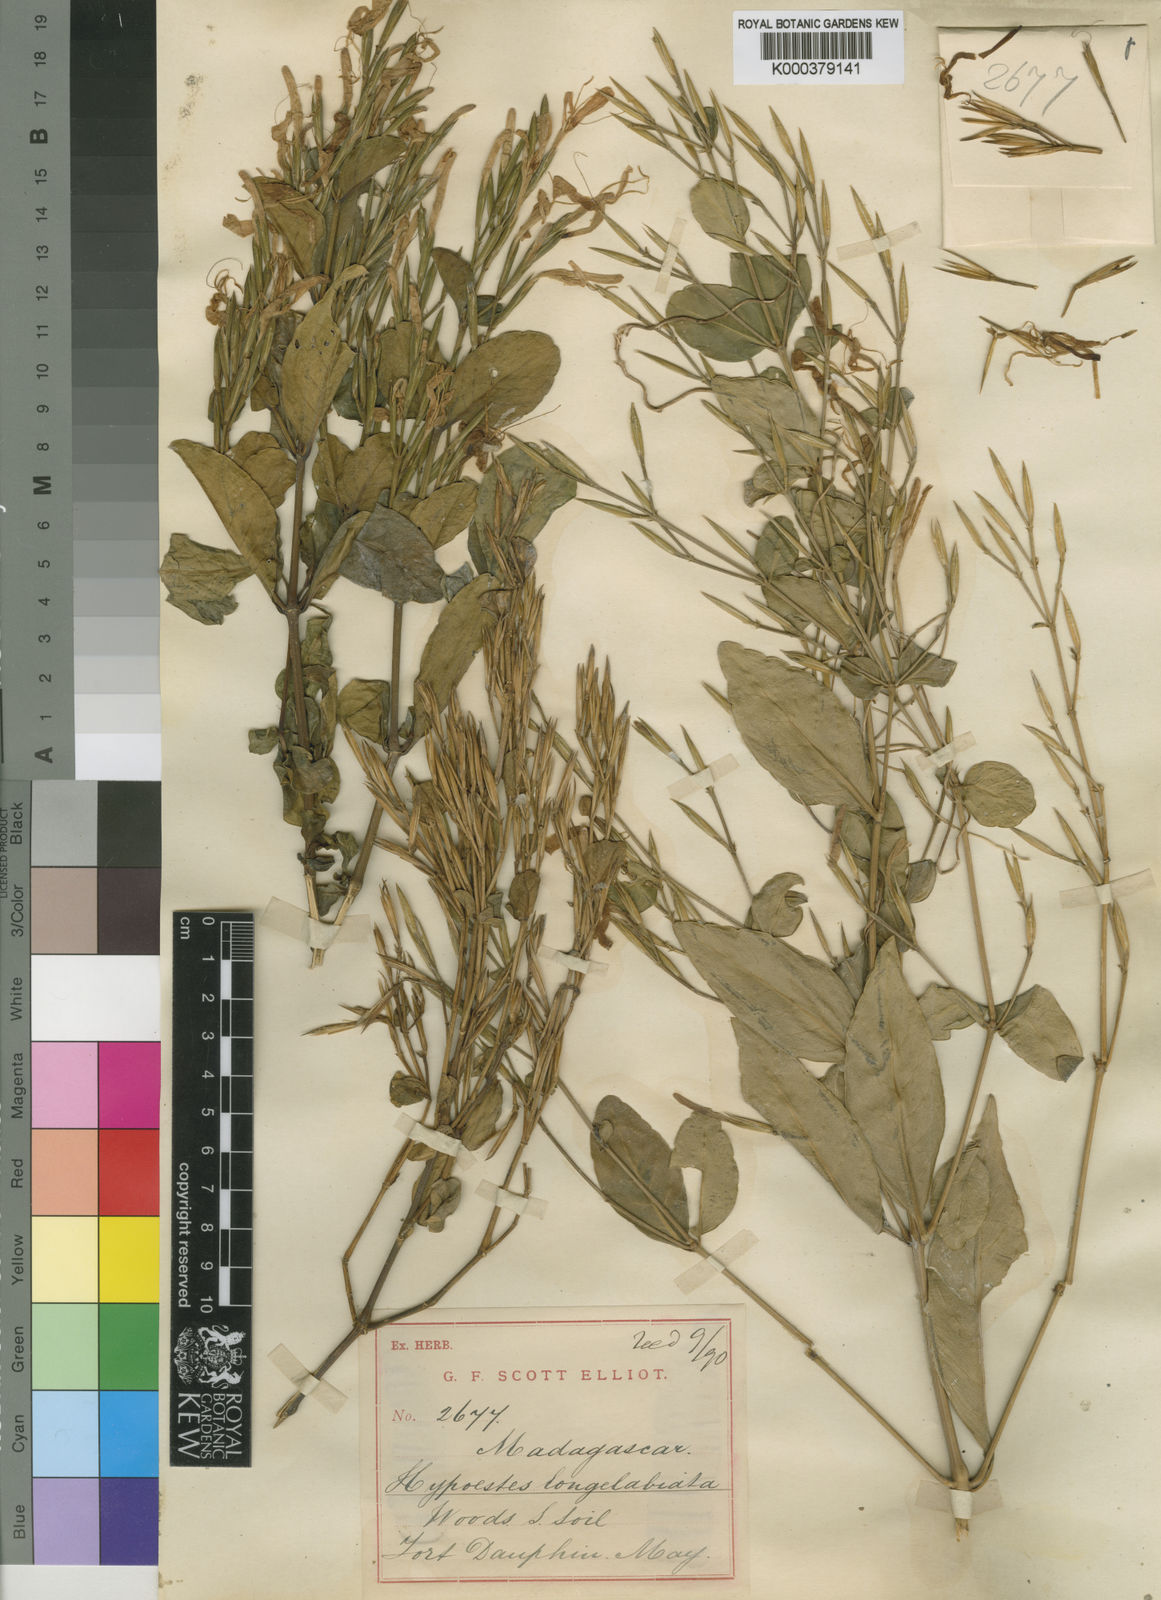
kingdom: Plantae
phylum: Tracheophyta
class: Magnoliopsida
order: Lamiales
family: Acanthaceae
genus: Hypoestes
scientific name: Hypoestes longilabiata
